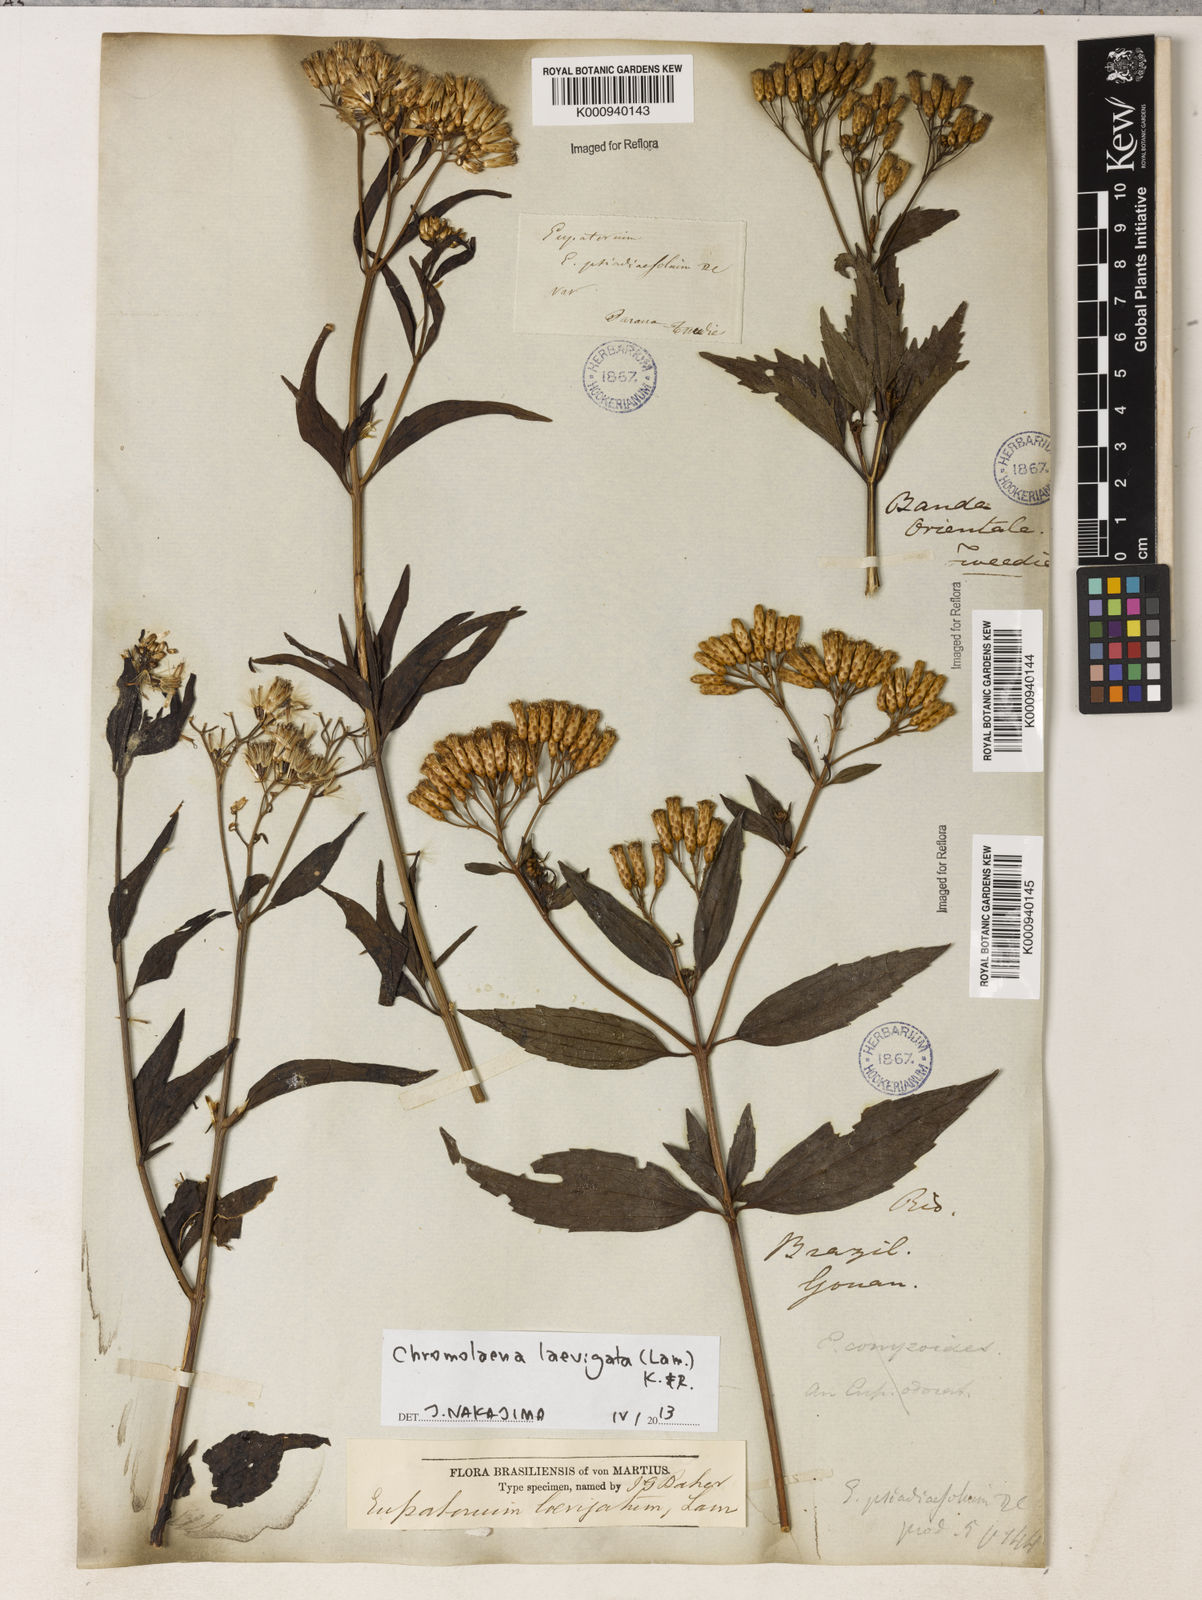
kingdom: Plantae
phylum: Tracheophyta
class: Magnoliopsida
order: Asterales
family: Asteraceae
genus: Chromolaena
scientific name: Chromolaena laevigata
